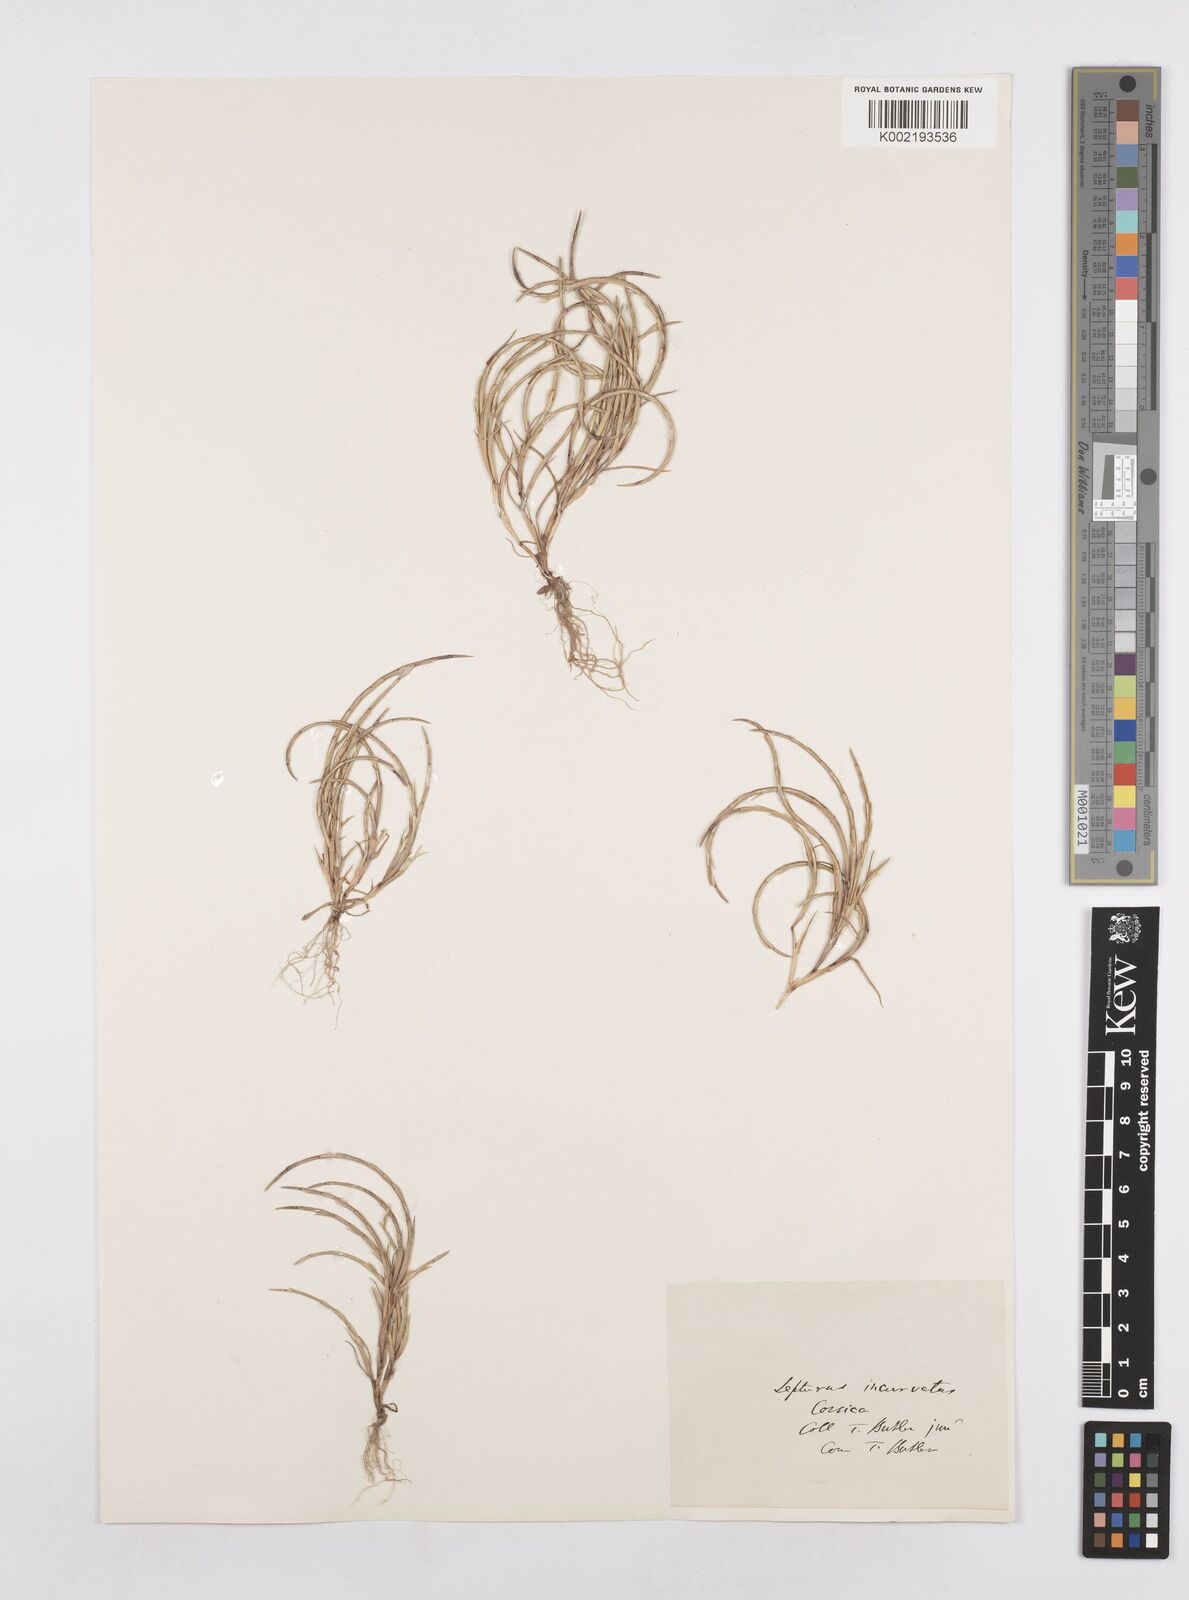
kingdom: Plantae
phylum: Tracheophyta
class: Liliopsida
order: Poales
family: Poaceae
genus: Parapholis
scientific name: Parapholis incurva
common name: Curved sicklegrass
